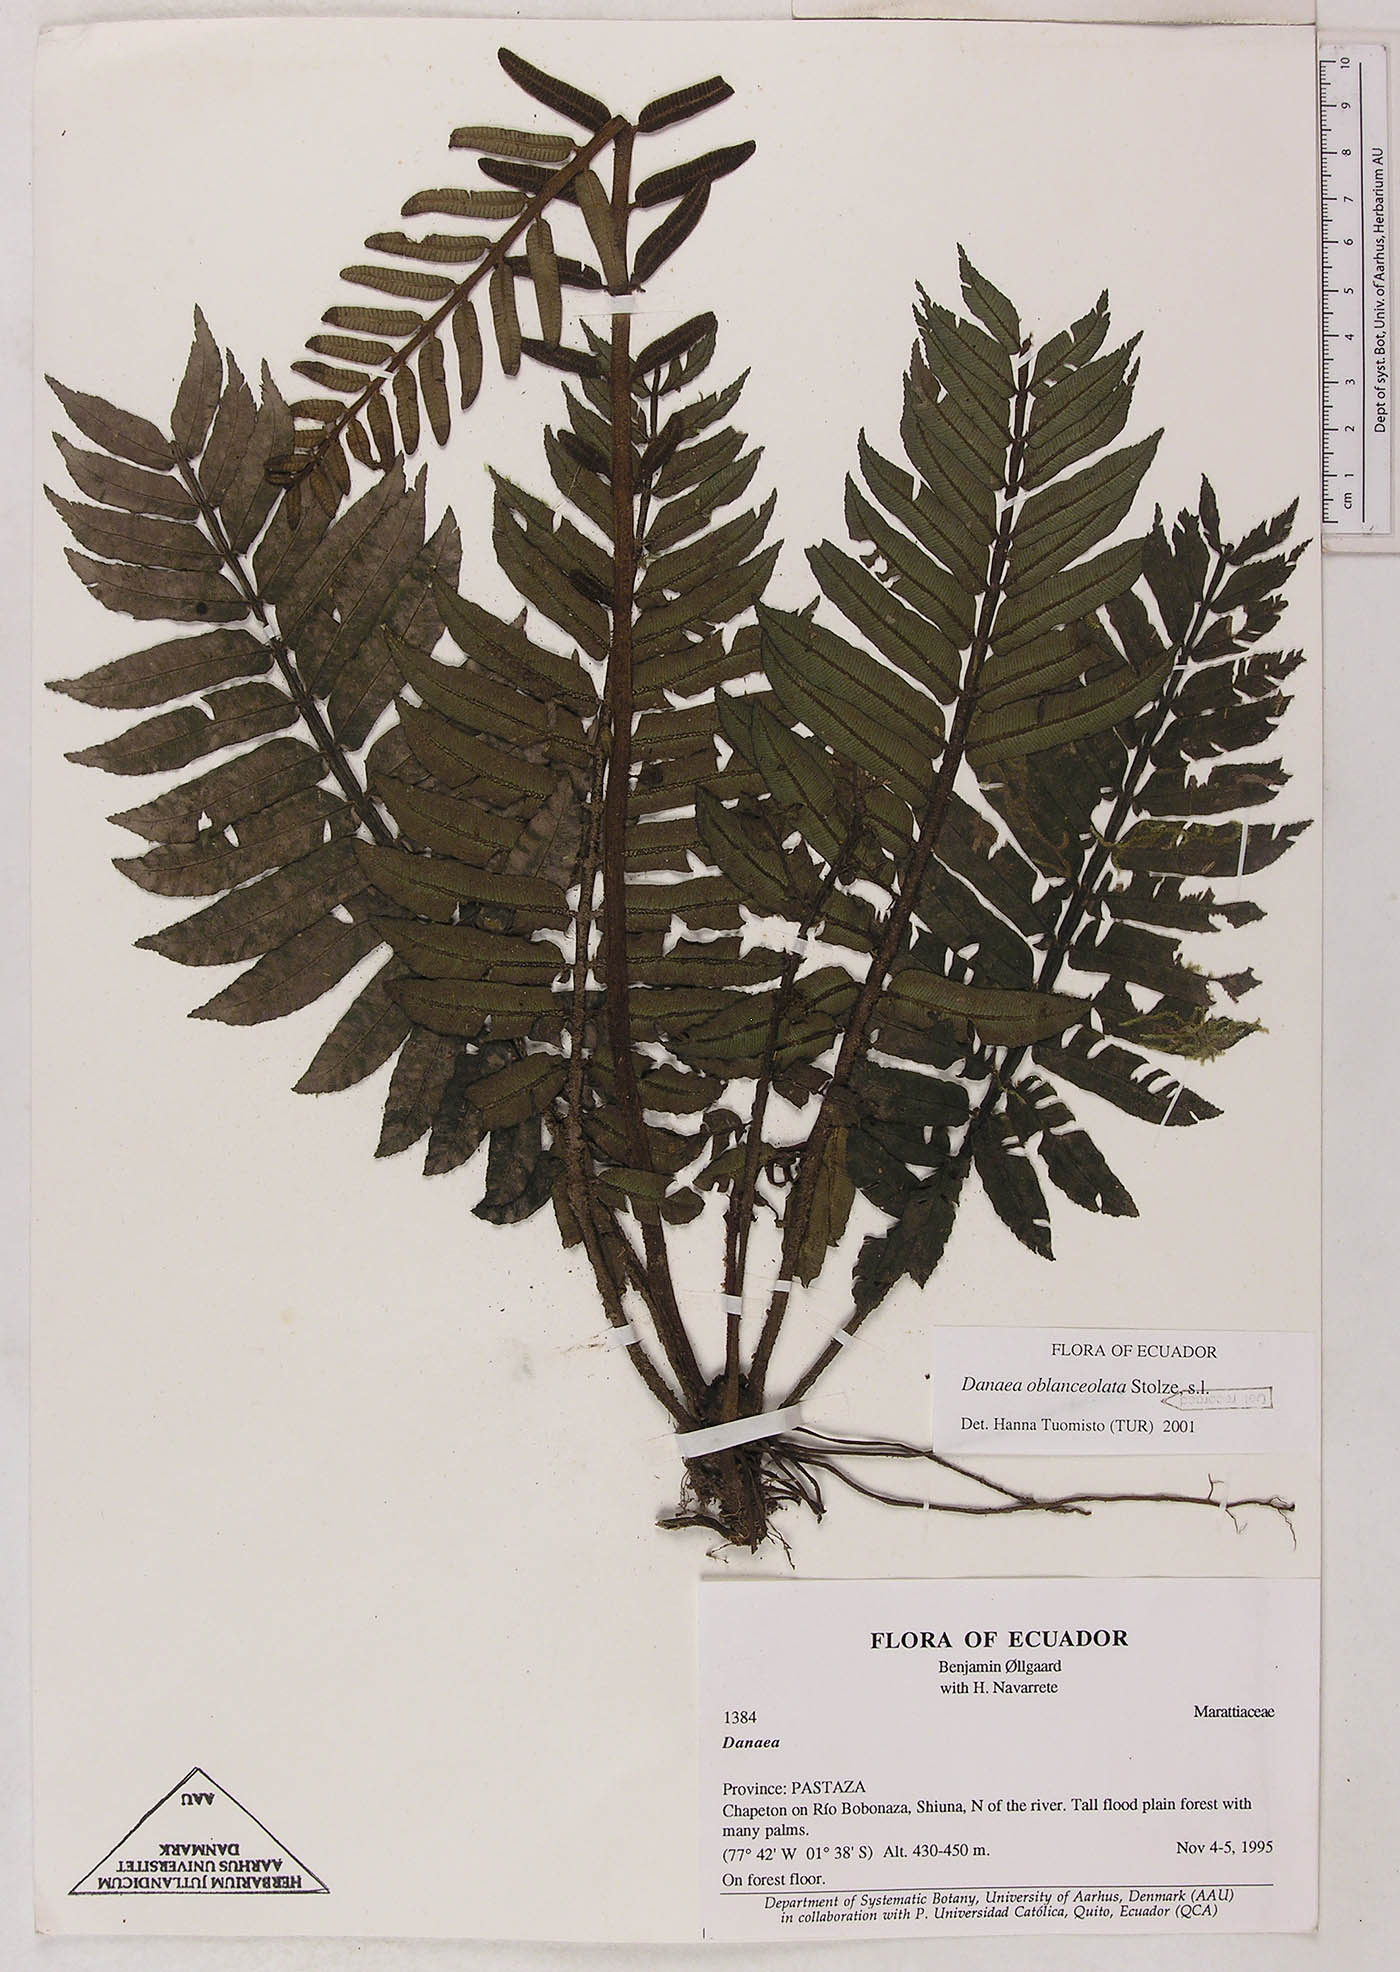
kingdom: Plantae
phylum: Tracheophyta
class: Polypodiopsida
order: Marattiales
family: Marattiaceae
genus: Danaea
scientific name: Danaea oblanceolata
